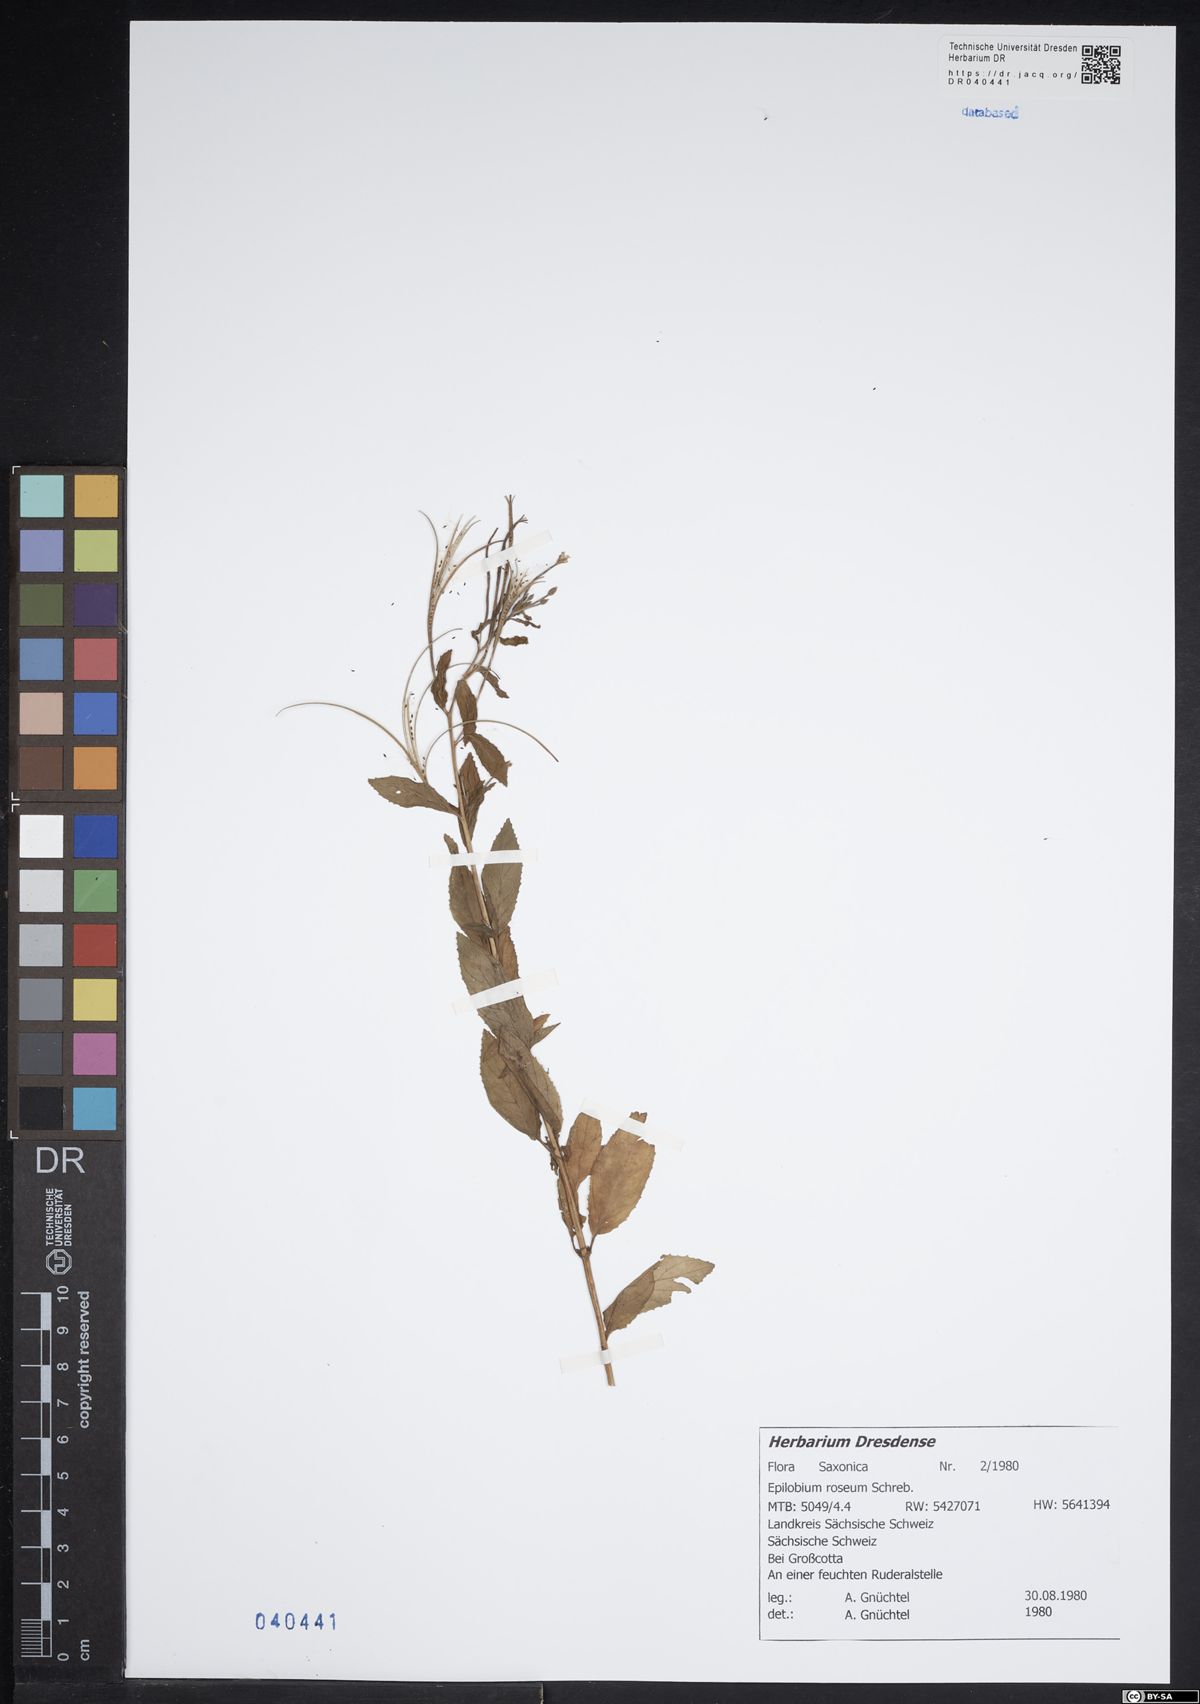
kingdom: Plantae
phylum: Tracheophyta
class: Magnoliopsida
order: Myrtales
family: Onagraceae
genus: Epilobium
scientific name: Epilobium roseum
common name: Pale willowherb
